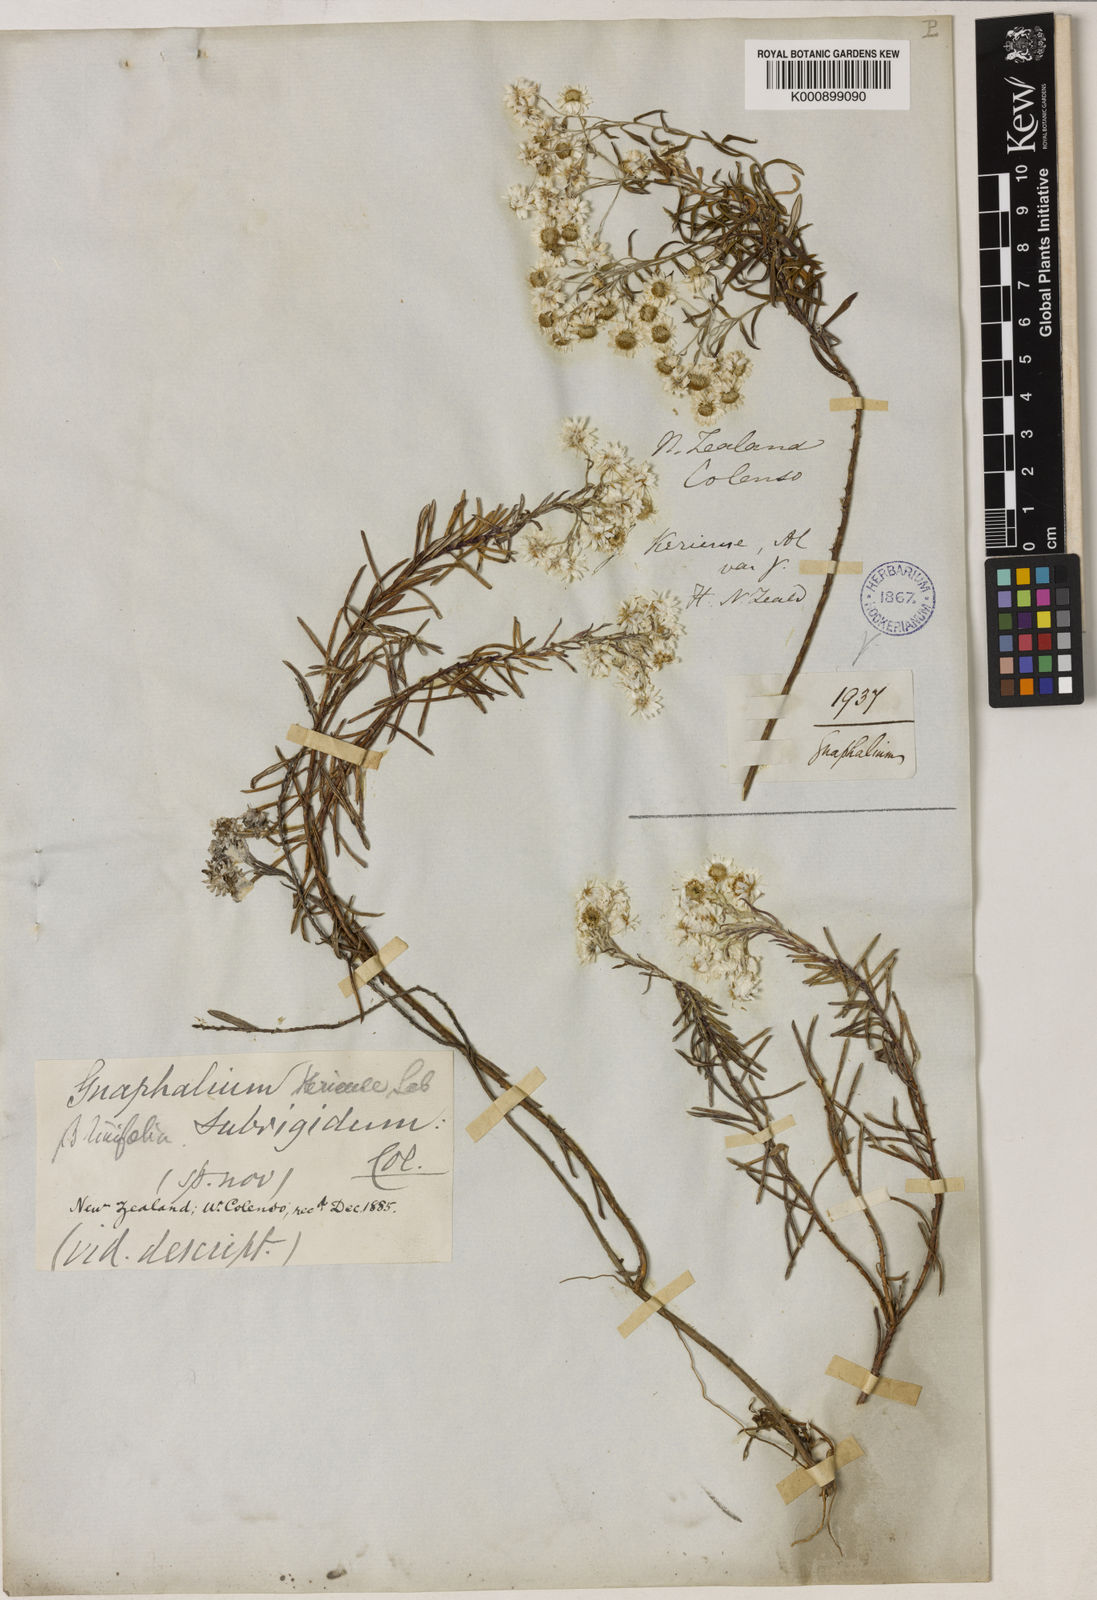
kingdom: Plantae
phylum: Tracheophyta
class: Magnoliopsida
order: Asterales
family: Asteraceae
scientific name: Asteraceae
